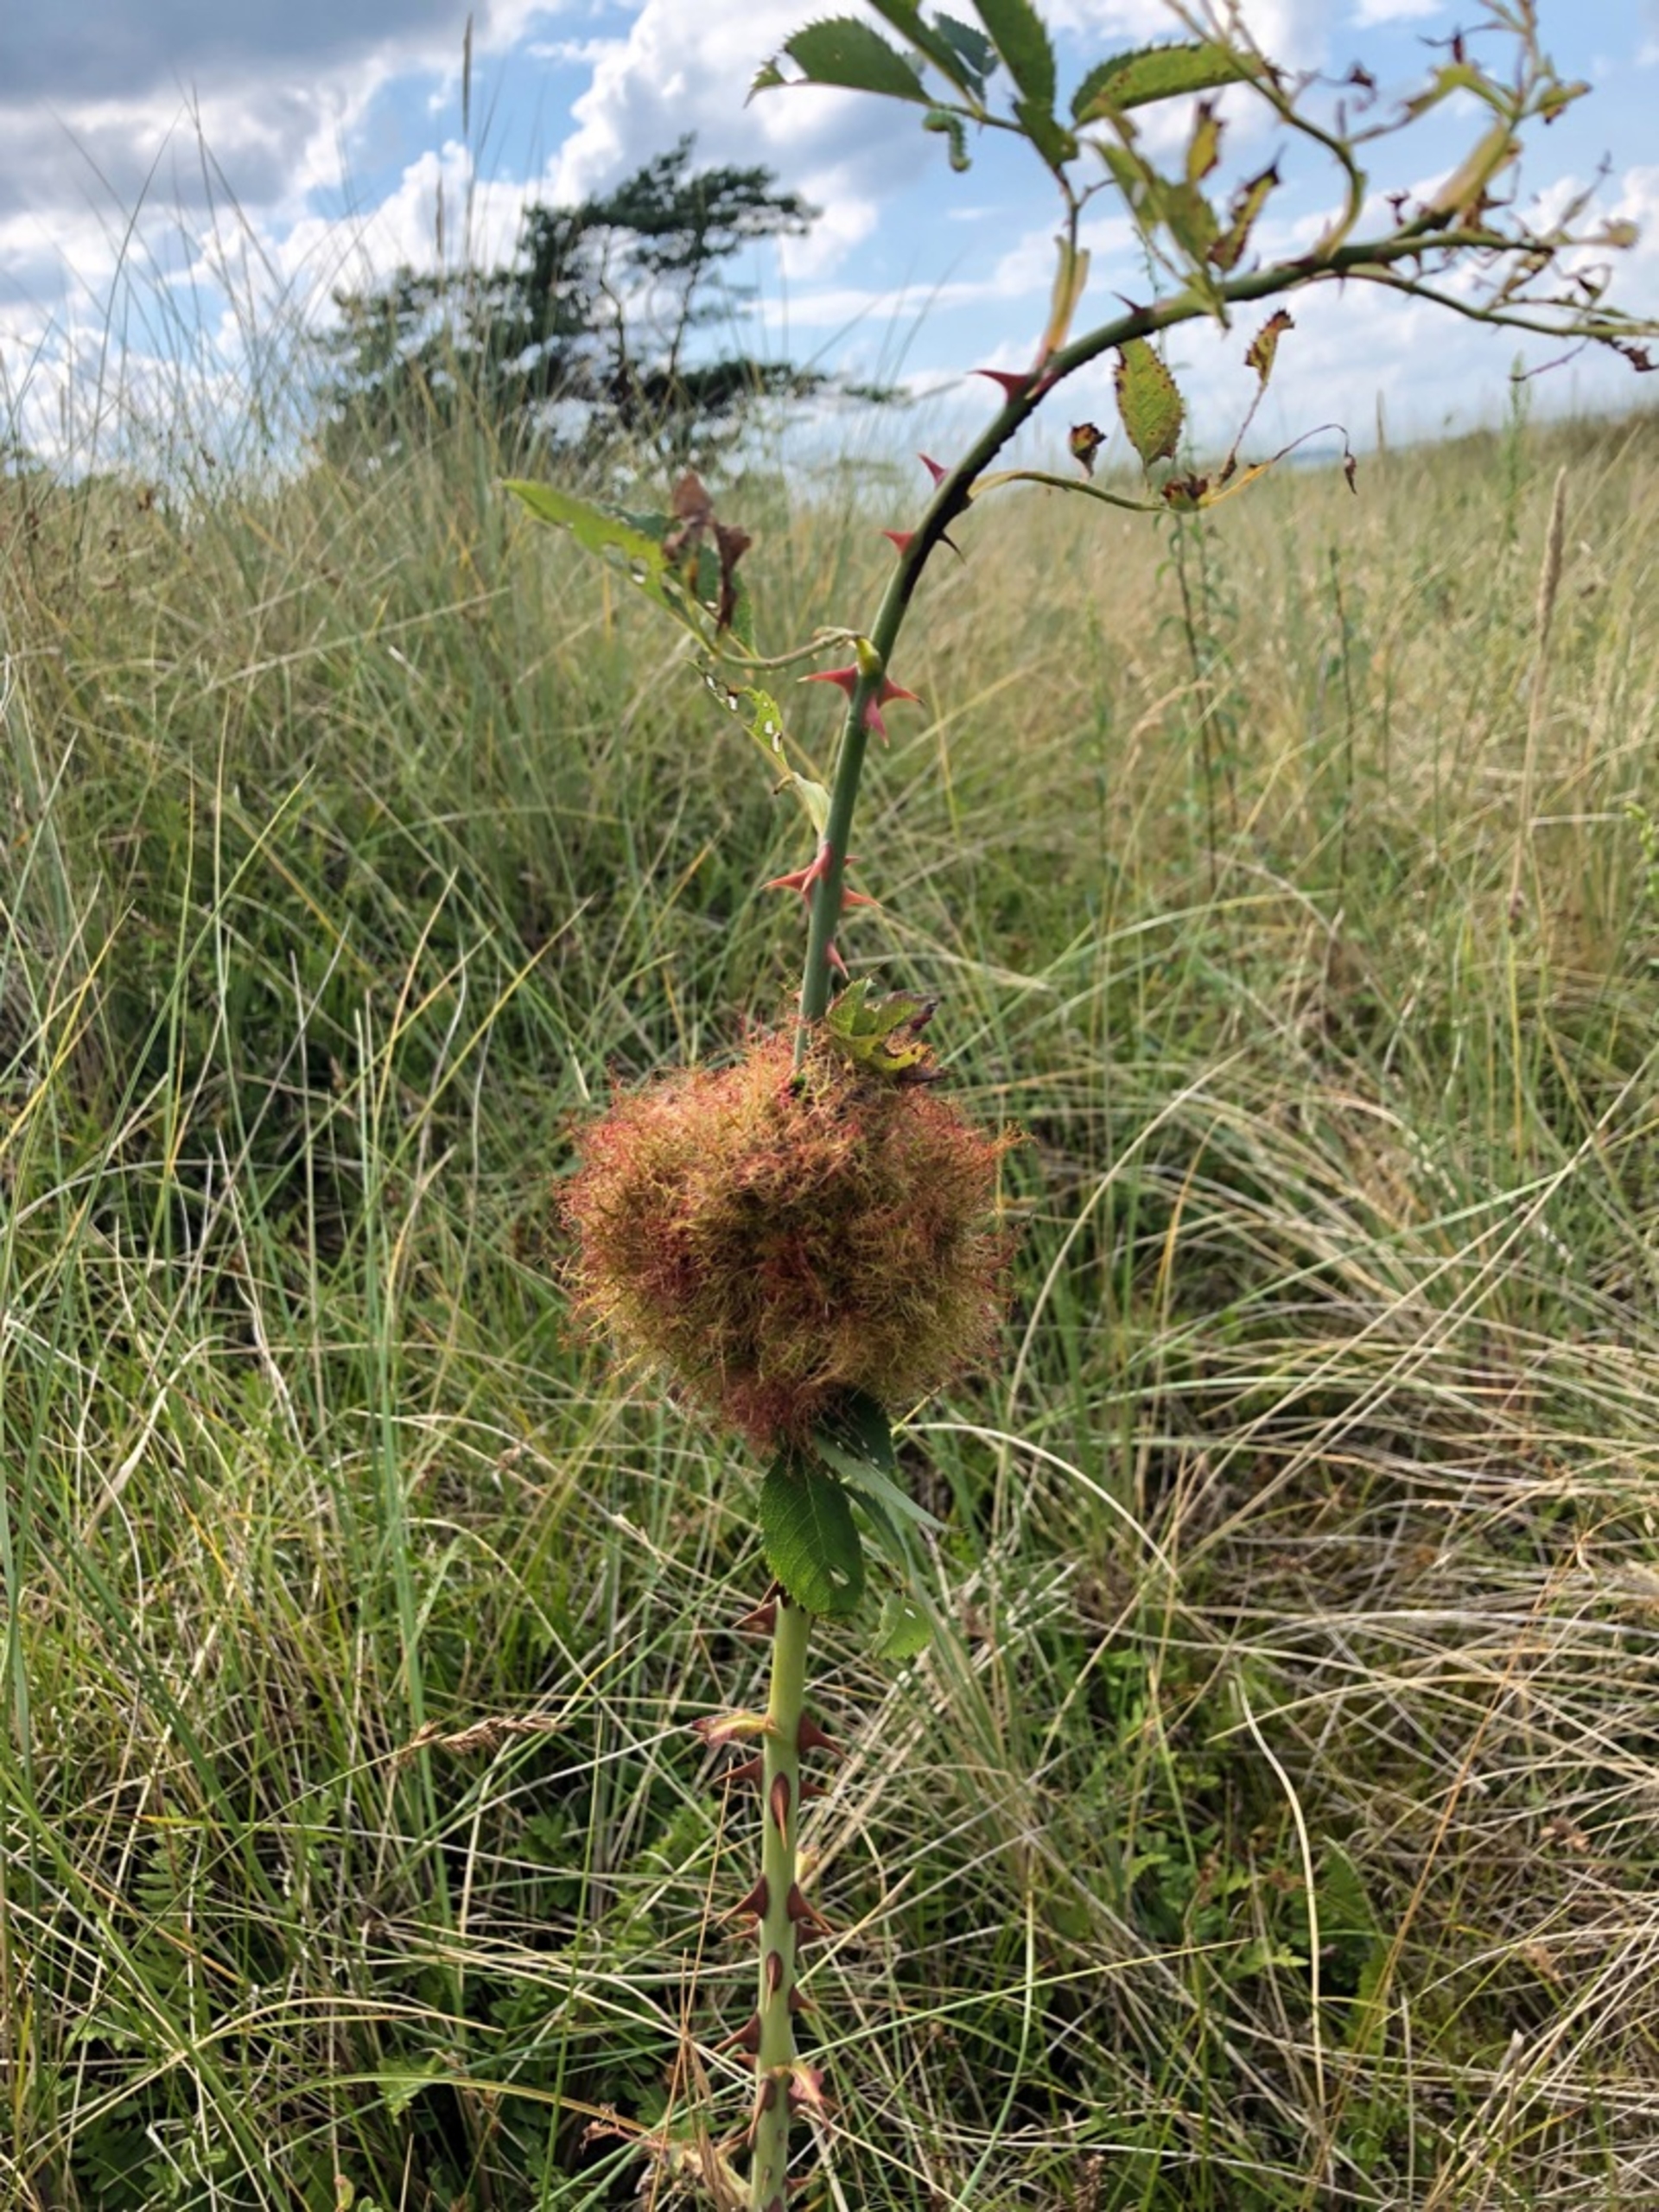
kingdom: Animalia
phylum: Arthropoda
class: Insecta
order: Hymenoptera
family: Cynipidae
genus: Diplolepis
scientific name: Diplolepis rosae
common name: Bedeguargalhveps
